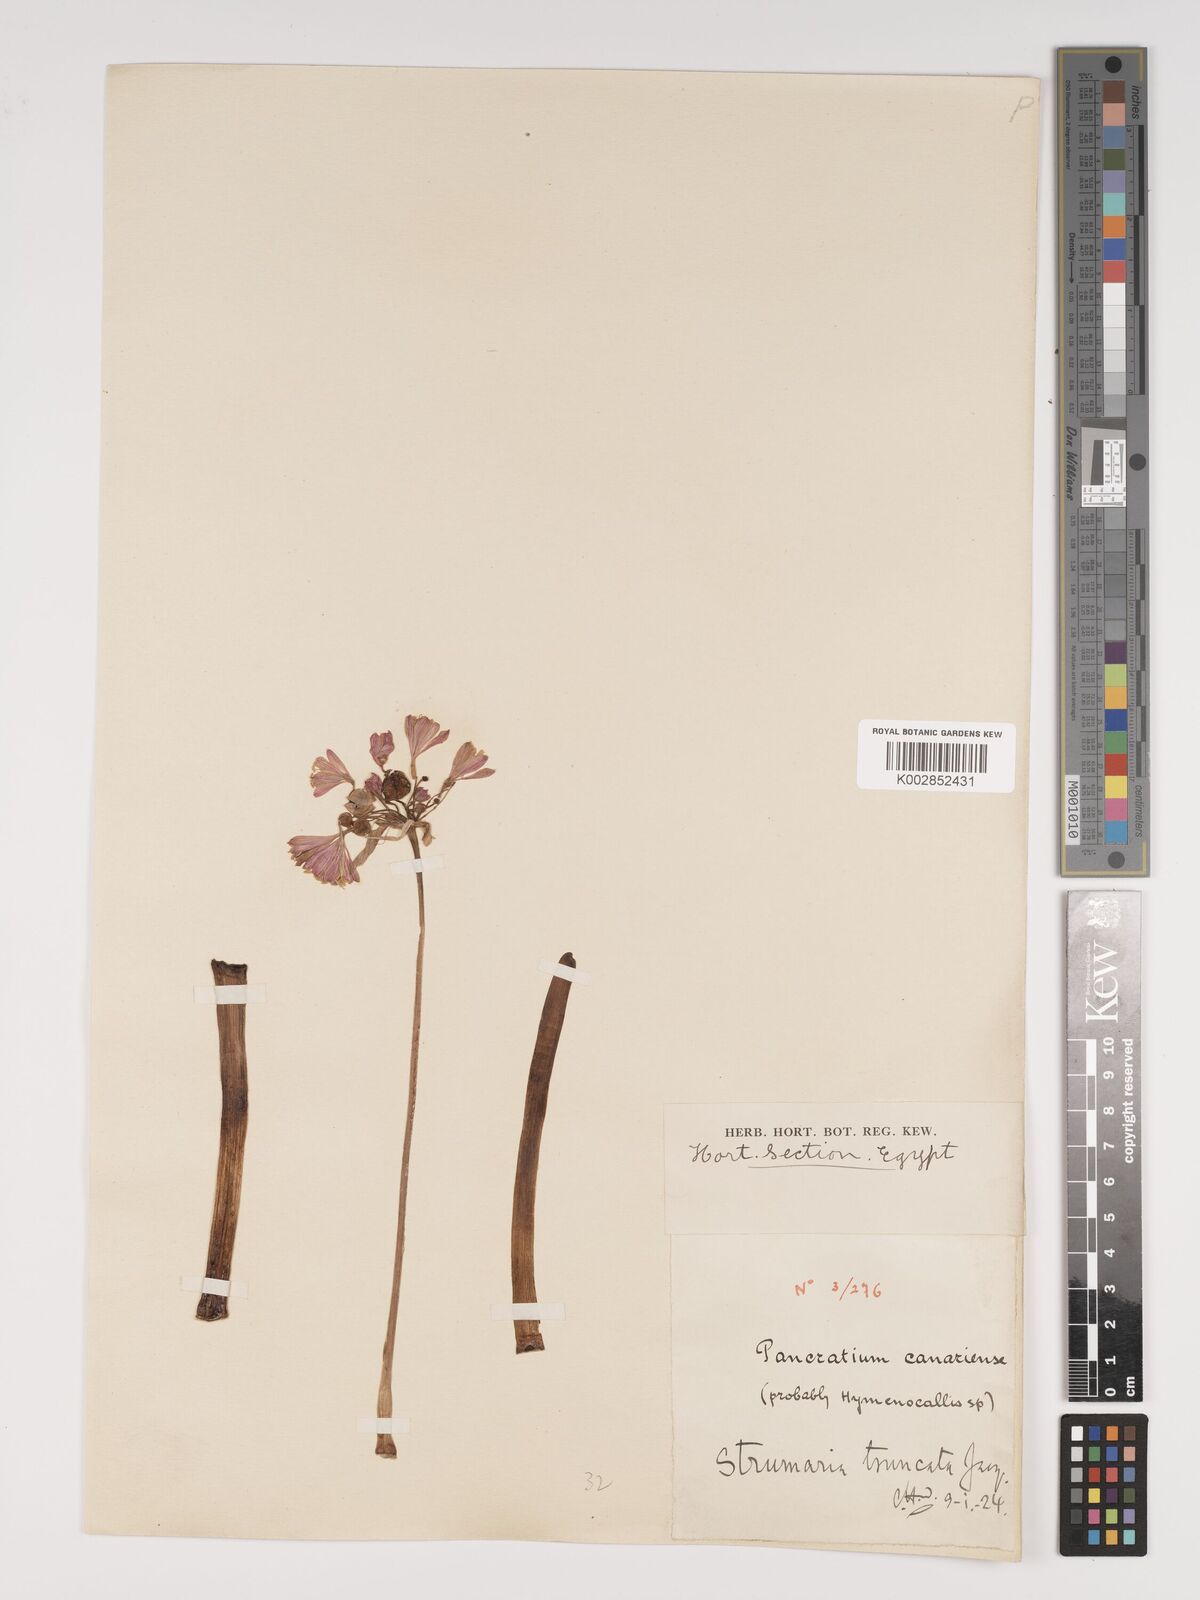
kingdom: Plantae
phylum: Tracheophyta
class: Liliopsida
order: Asparagales
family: Amaryllidaceae
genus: Strumaria
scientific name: Strumaria truncata
